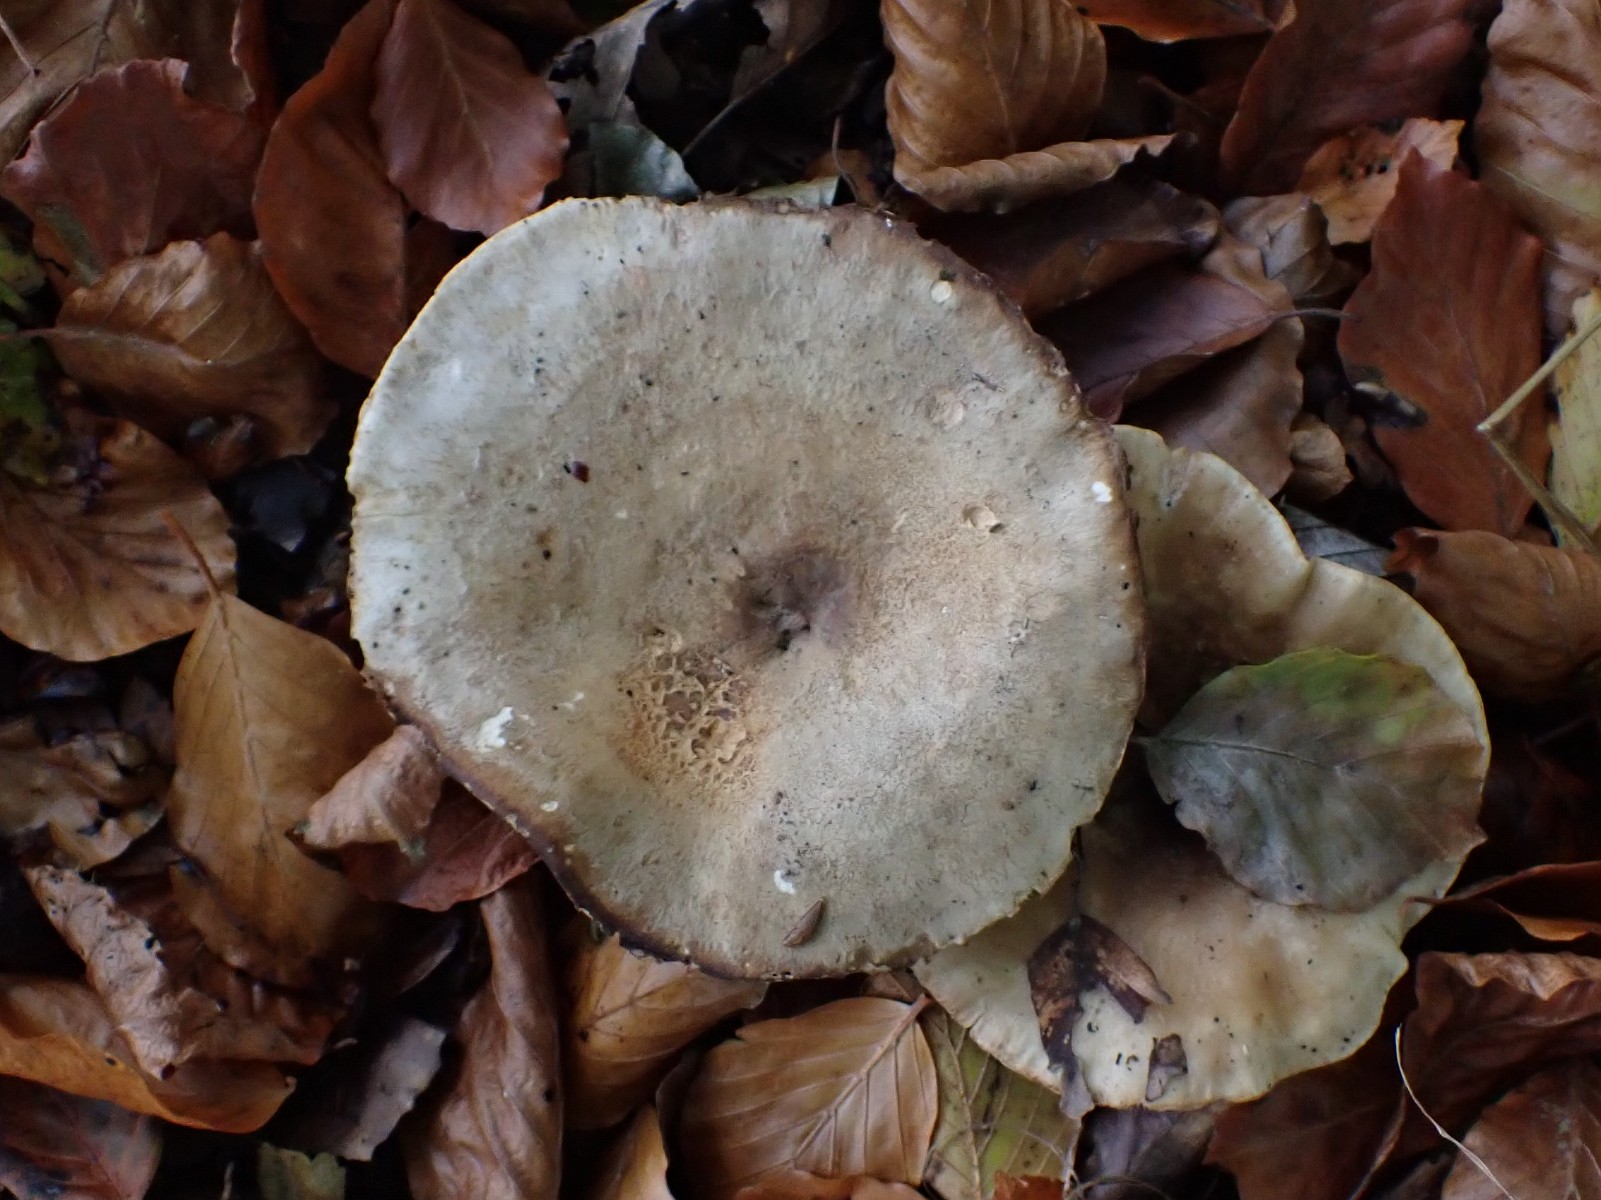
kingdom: Fungi
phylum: Basidiomycota
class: Agaricomycetes
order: Russulales
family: Russulaceae
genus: Lactarius
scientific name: Lactarius
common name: mælkehat
